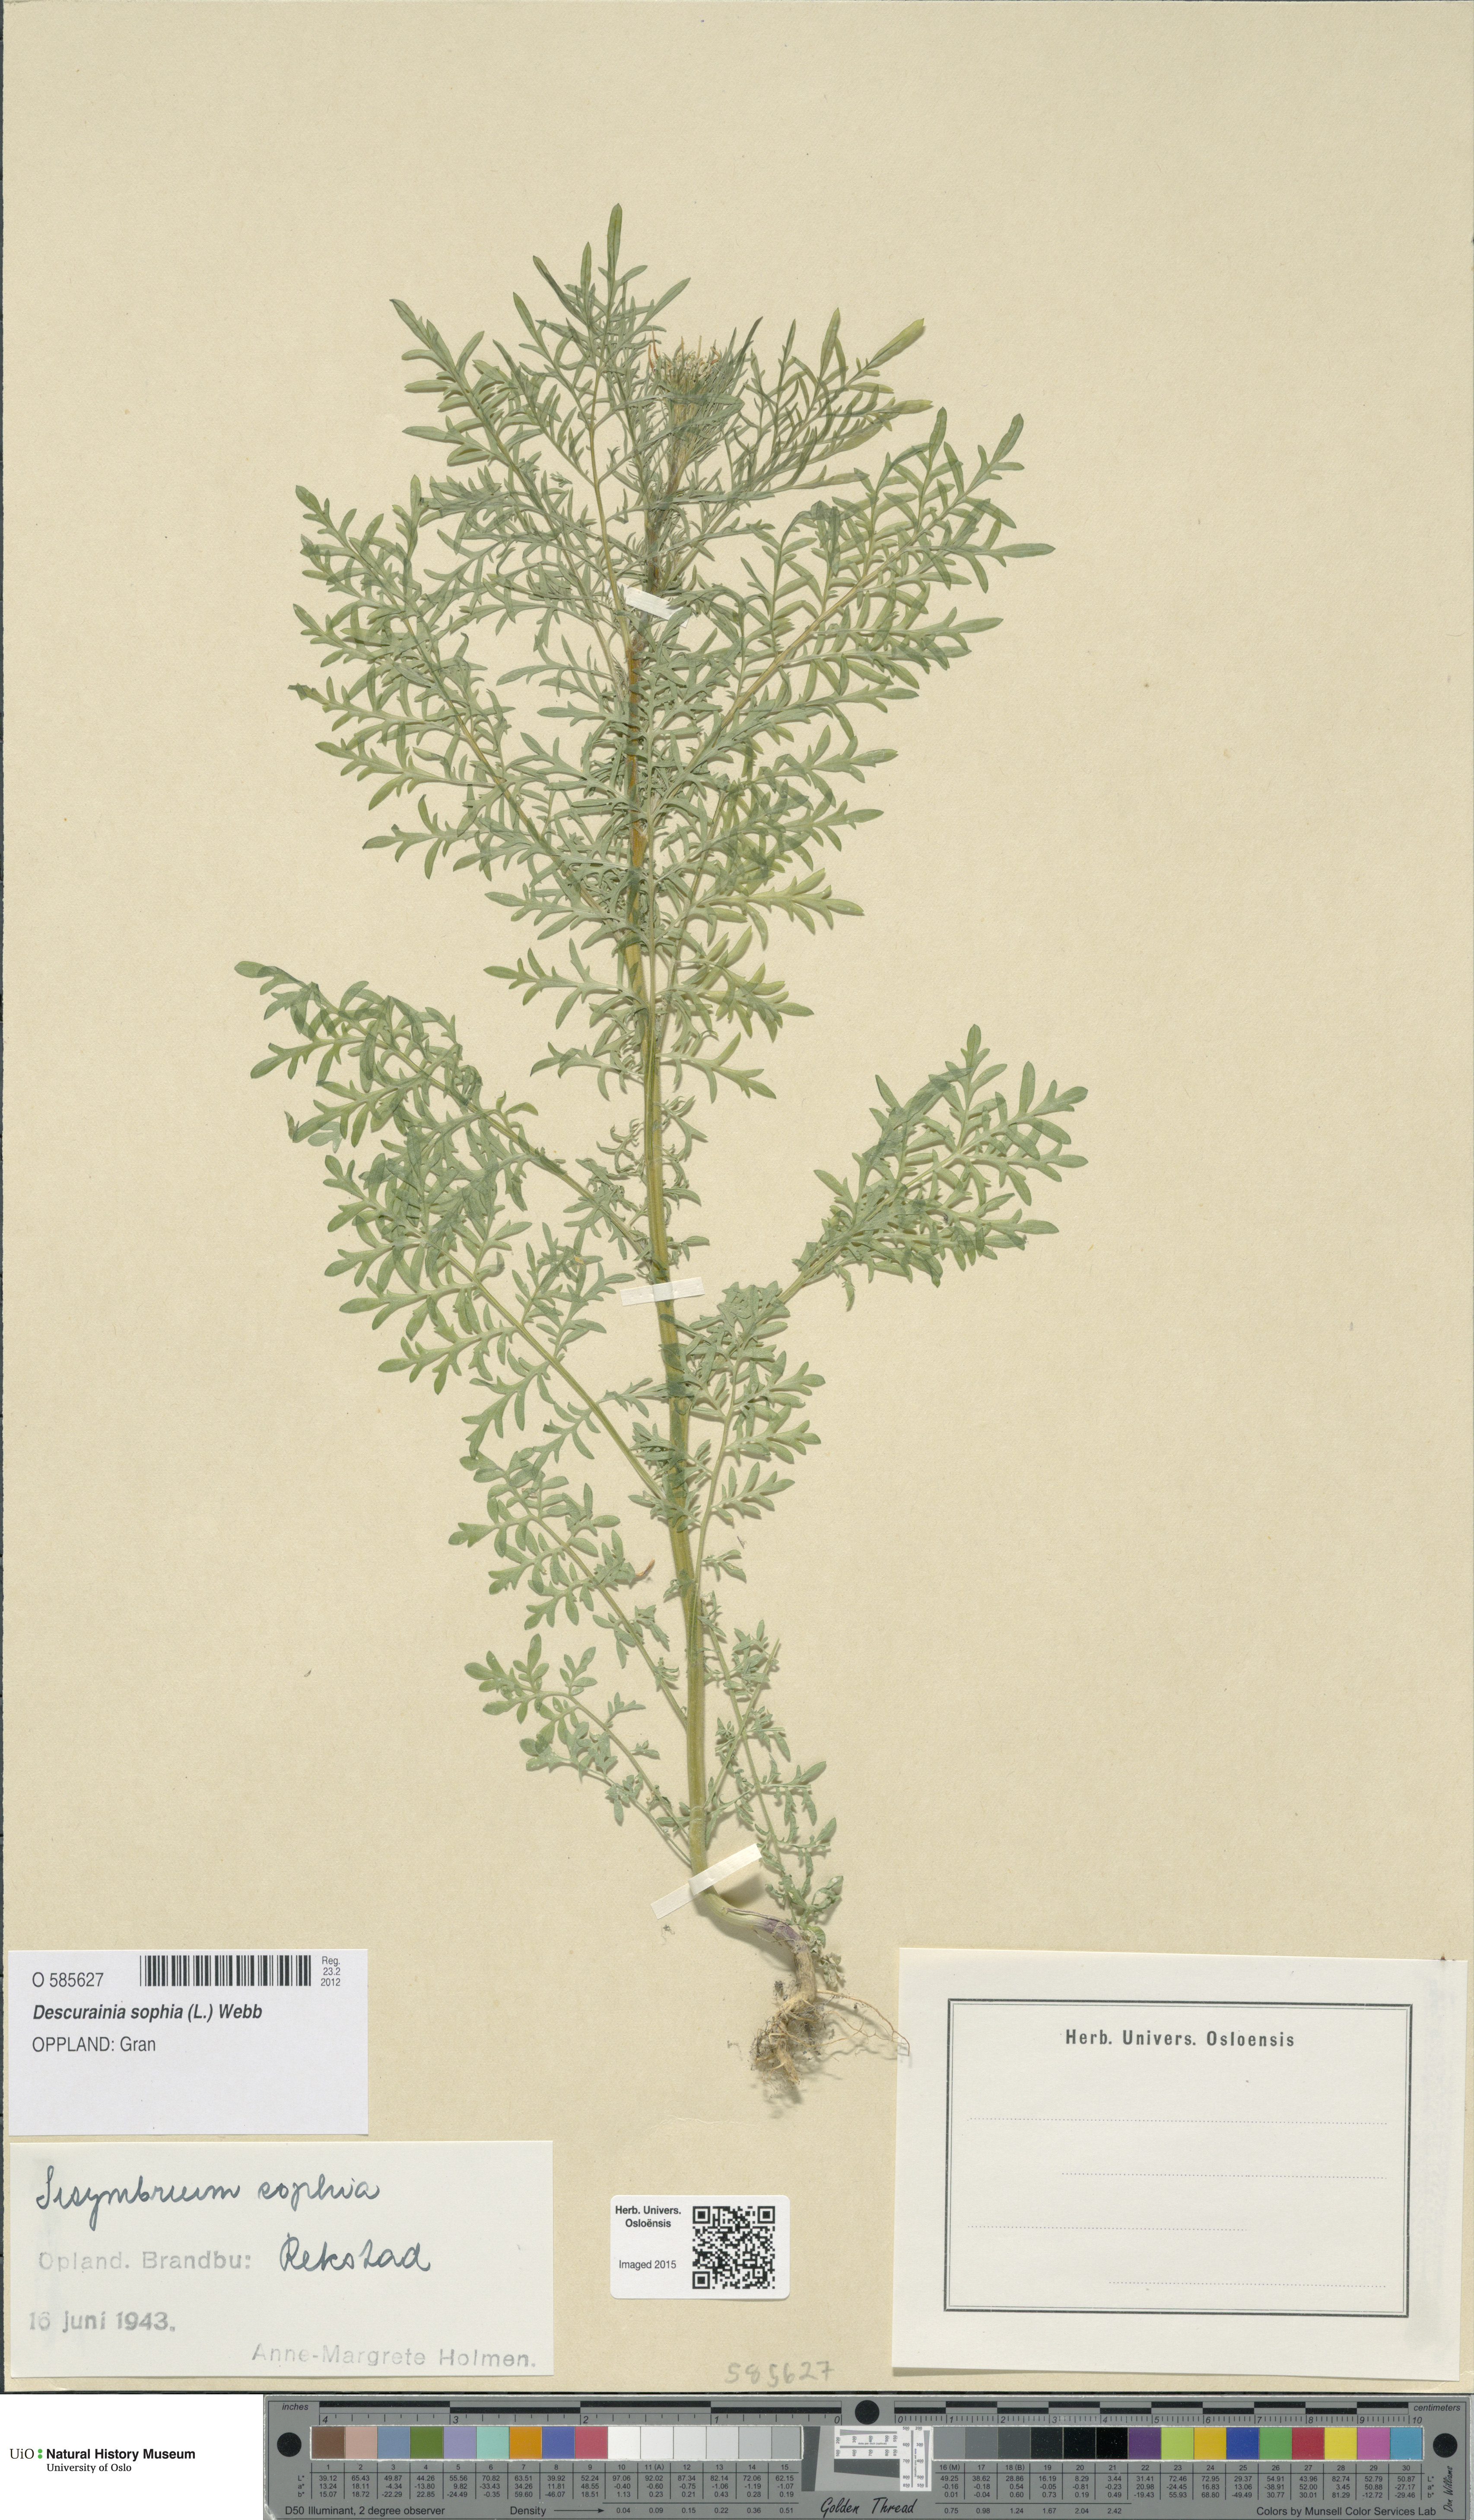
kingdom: Plantae
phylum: Tracheophyta
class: Magnoliopsida
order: Brassicales
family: Brassicaceae
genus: Descurainia
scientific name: Descurainia sophia
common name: Flixweed
